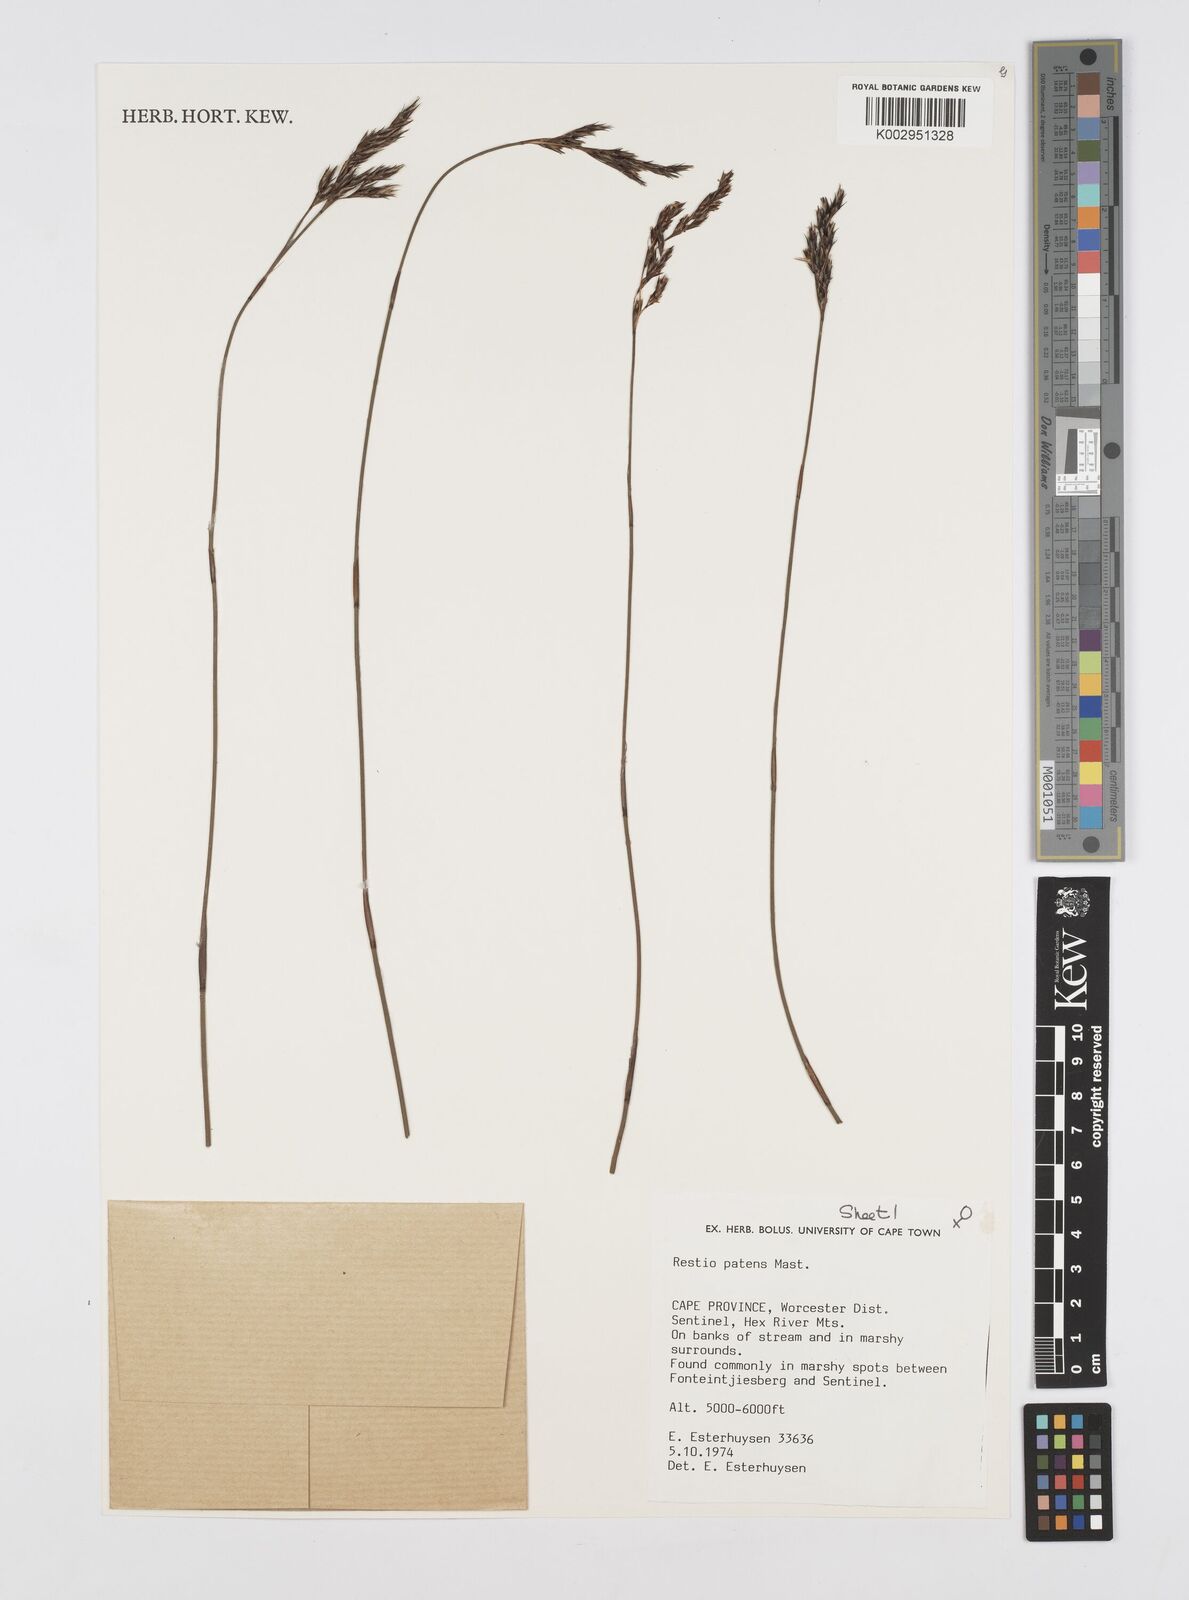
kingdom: Plantae
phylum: Tracheophyta
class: Liliopsida
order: Poales
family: Restionaceae
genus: Restio
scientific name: Restio patens
